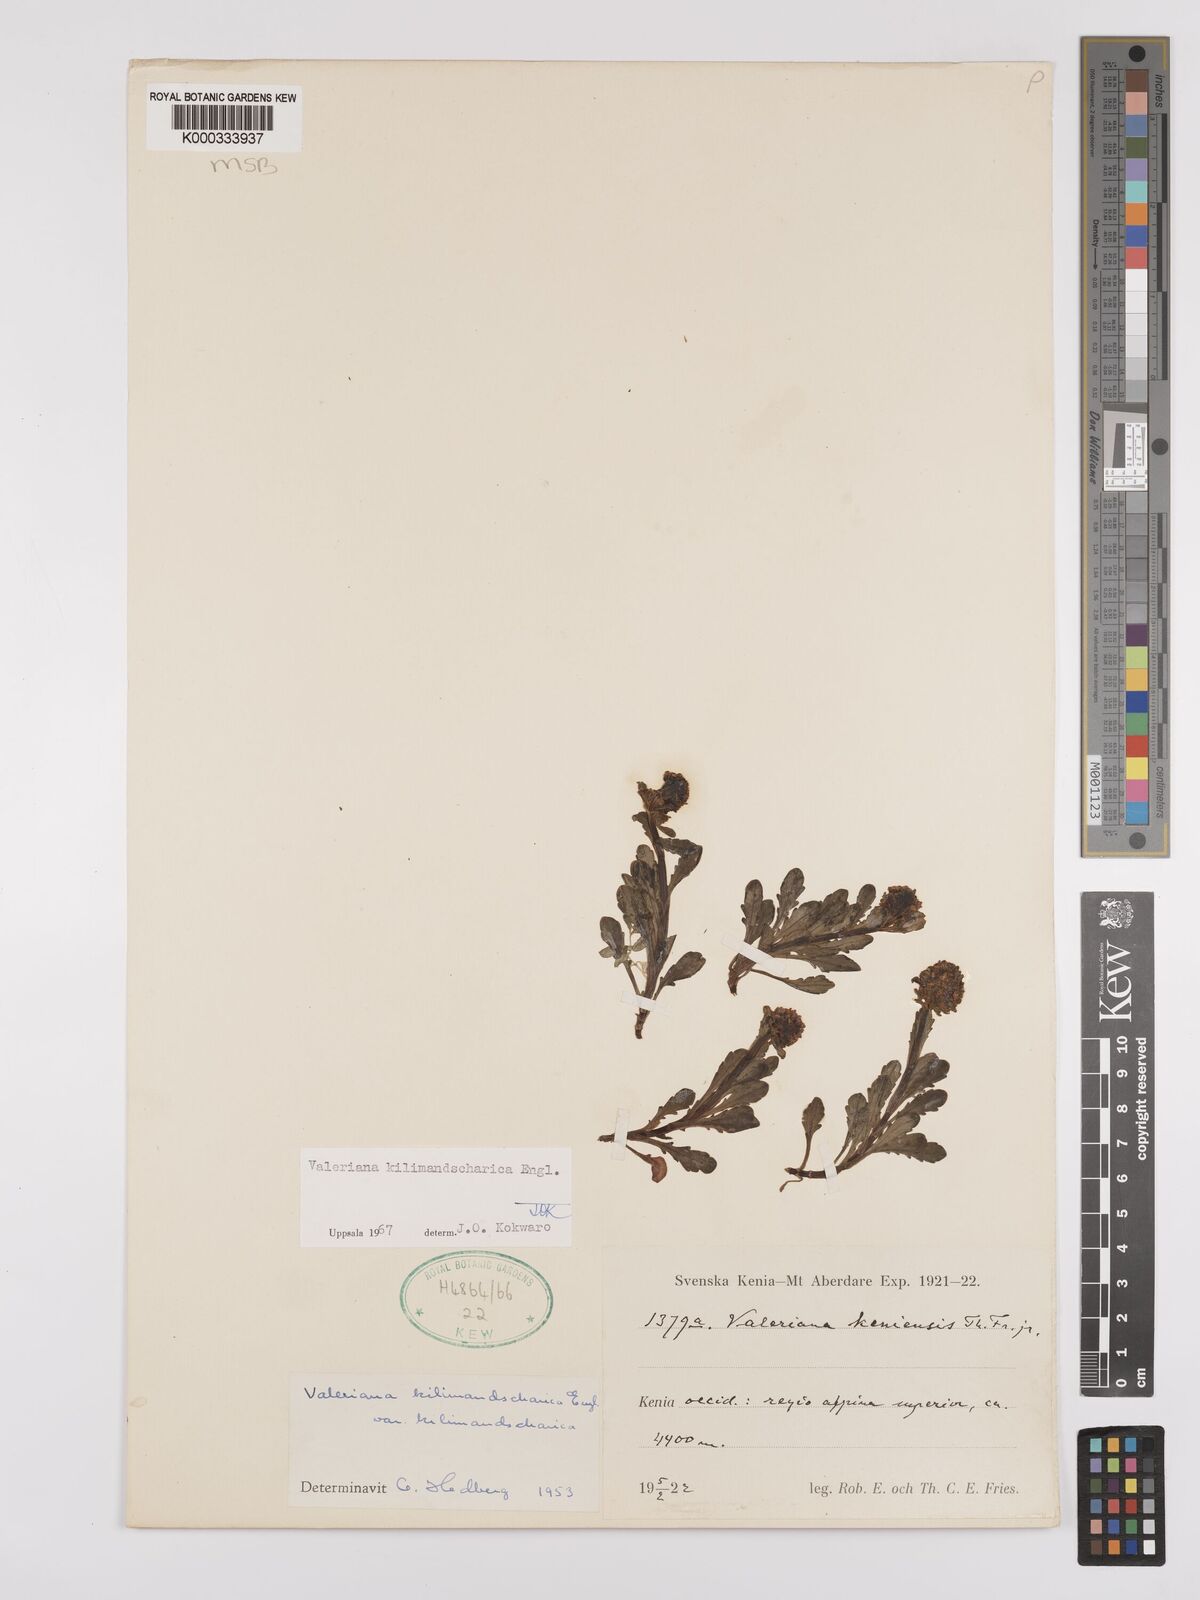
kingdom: Plantae
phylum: Tracheophyta
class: Magnoliopsida
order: Dipsacales
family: Caprifoliaceae
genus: Valeriana
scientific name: Valeriana kilimandscharica
